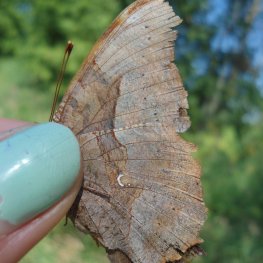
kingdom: Animalia
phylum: Arthropoda
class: Insecta
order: Lepidoptera
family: Nymphalidae
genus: Polygonia
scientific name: Polygonia interrogationis
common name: Question Mark
